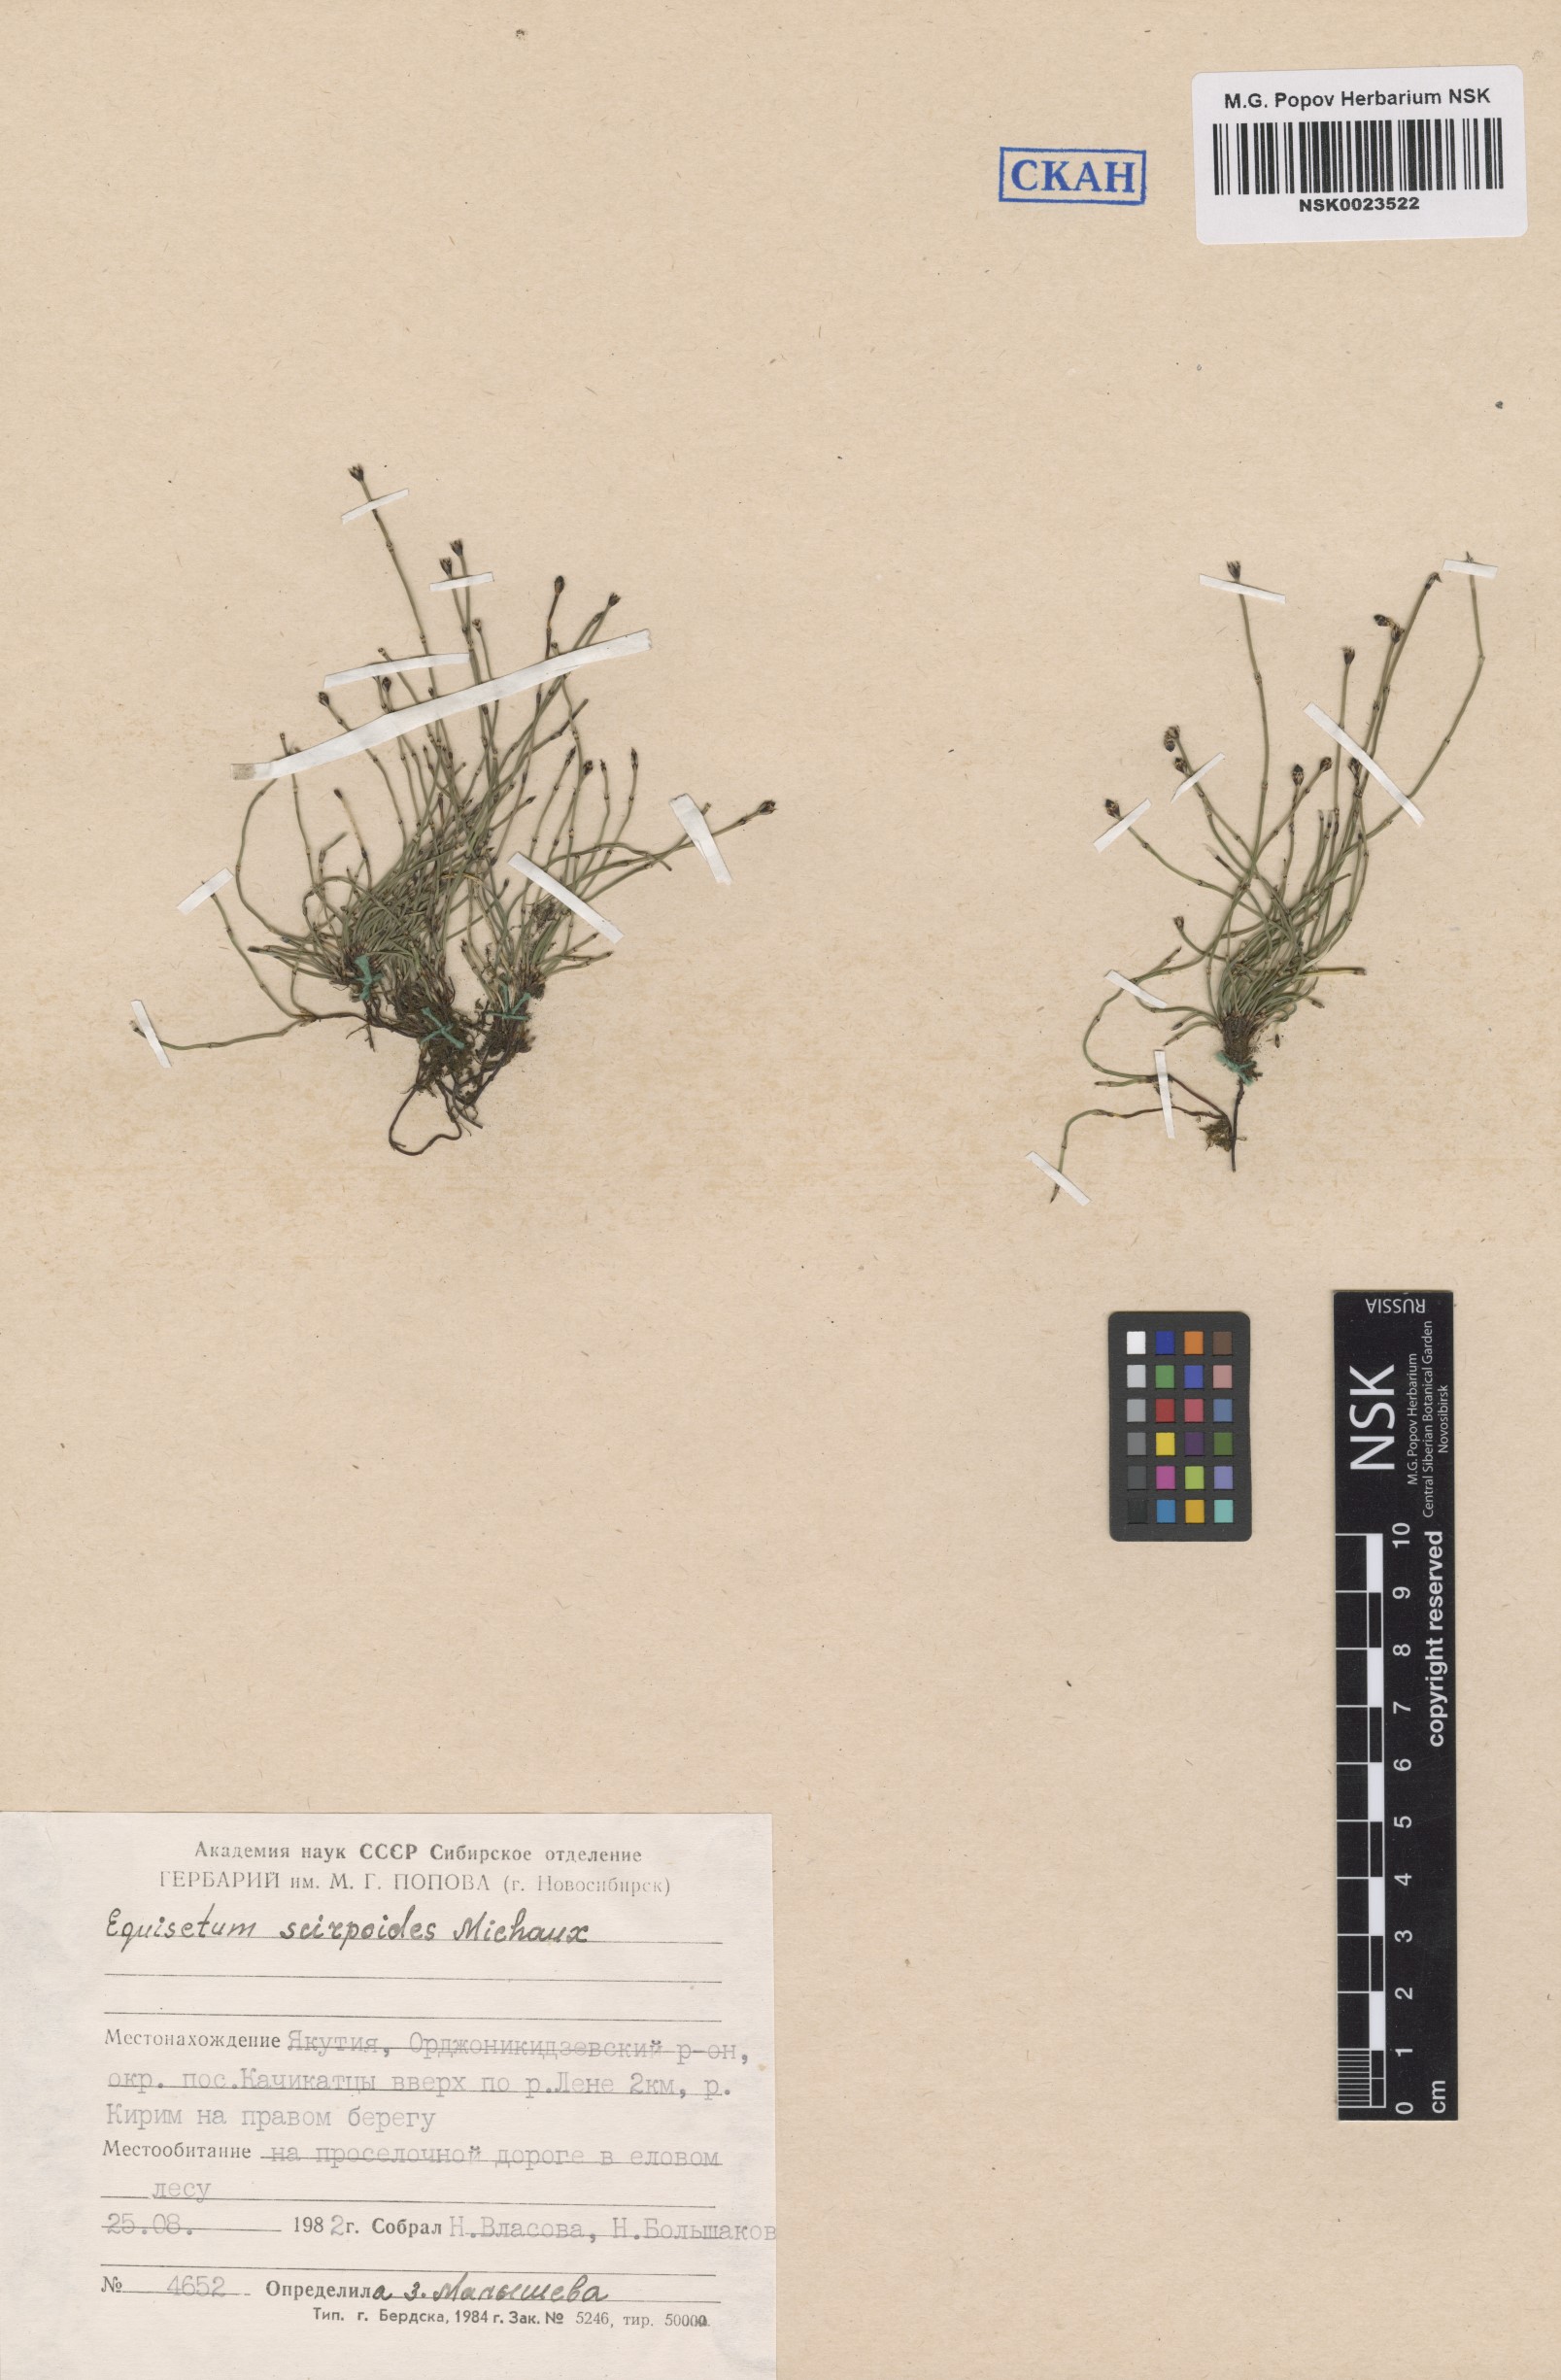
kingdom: Plantae
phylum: Tracheophyta
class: Polypodiopsida
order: Equisetales
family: Equisetaceae
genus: Equisetum
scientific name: Equisetum scirpoides
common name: Delicate horsetail
